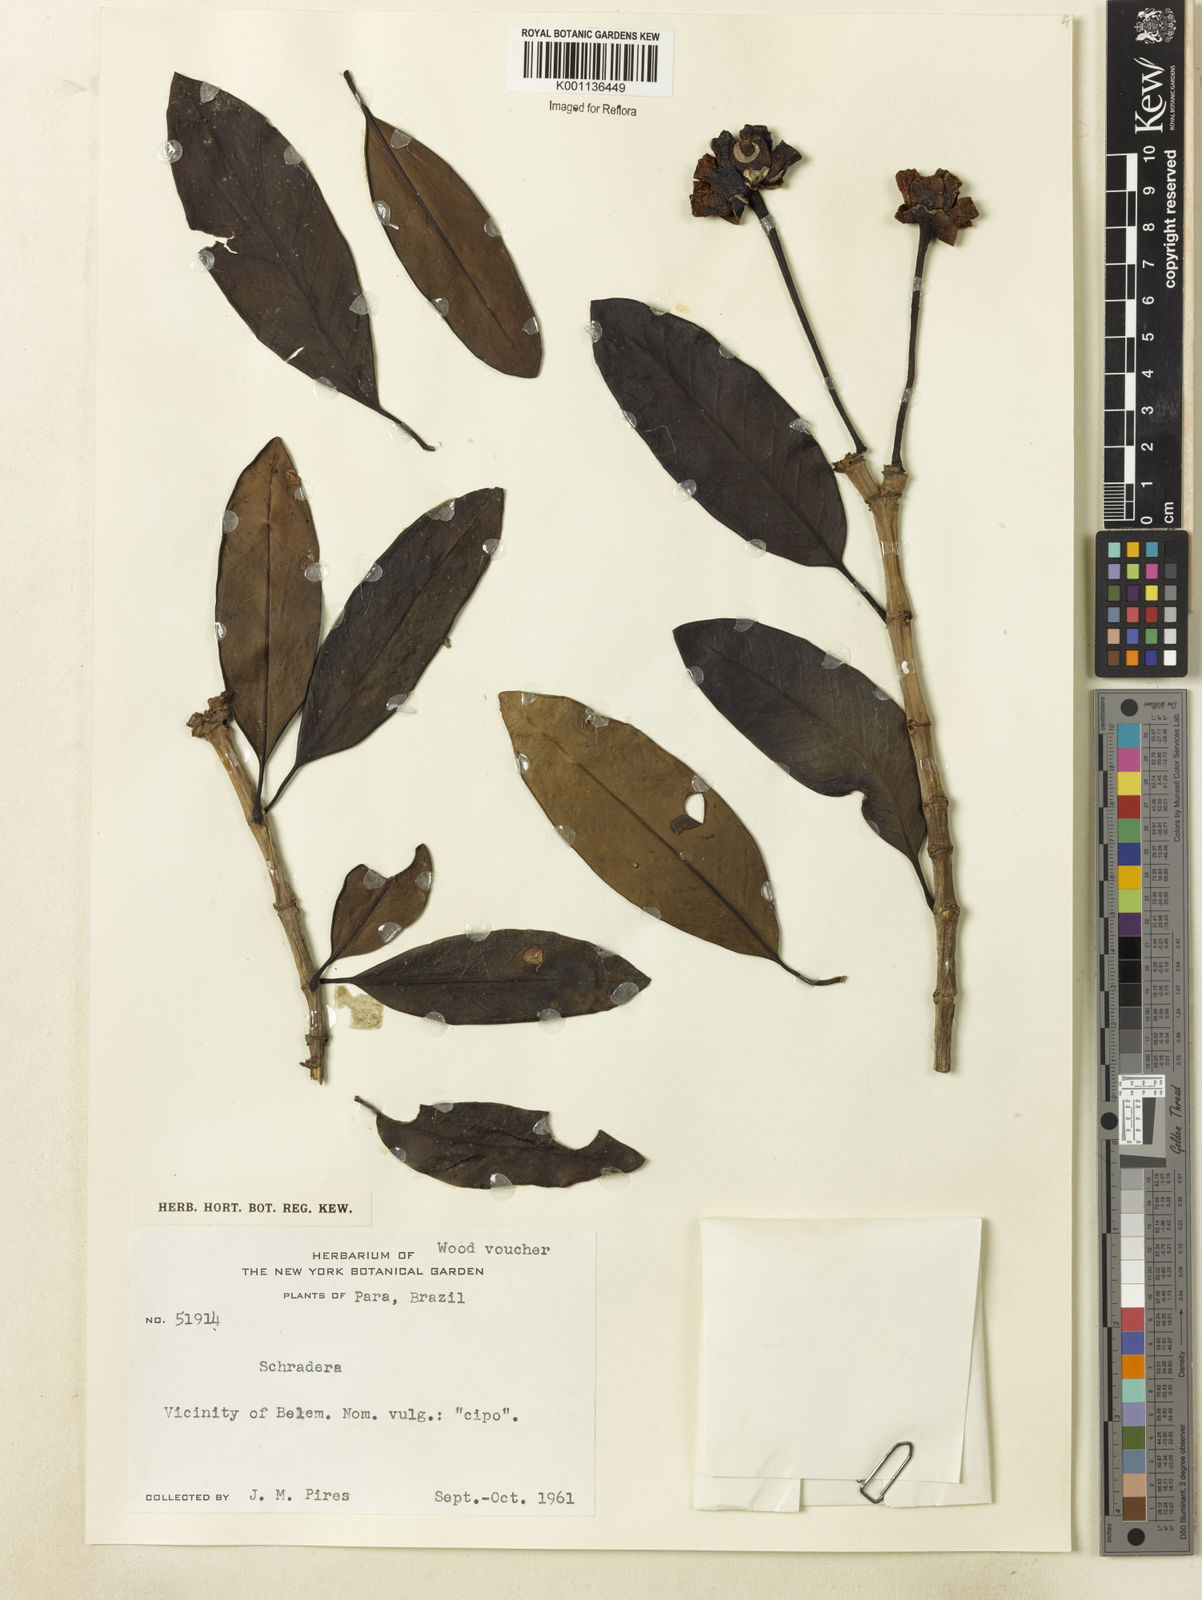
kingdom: Plantae
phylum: Tracheophyta
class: Magnoliopsida
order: Gentianales
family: Rubiaceae
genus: Schradera
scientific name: Schradera
